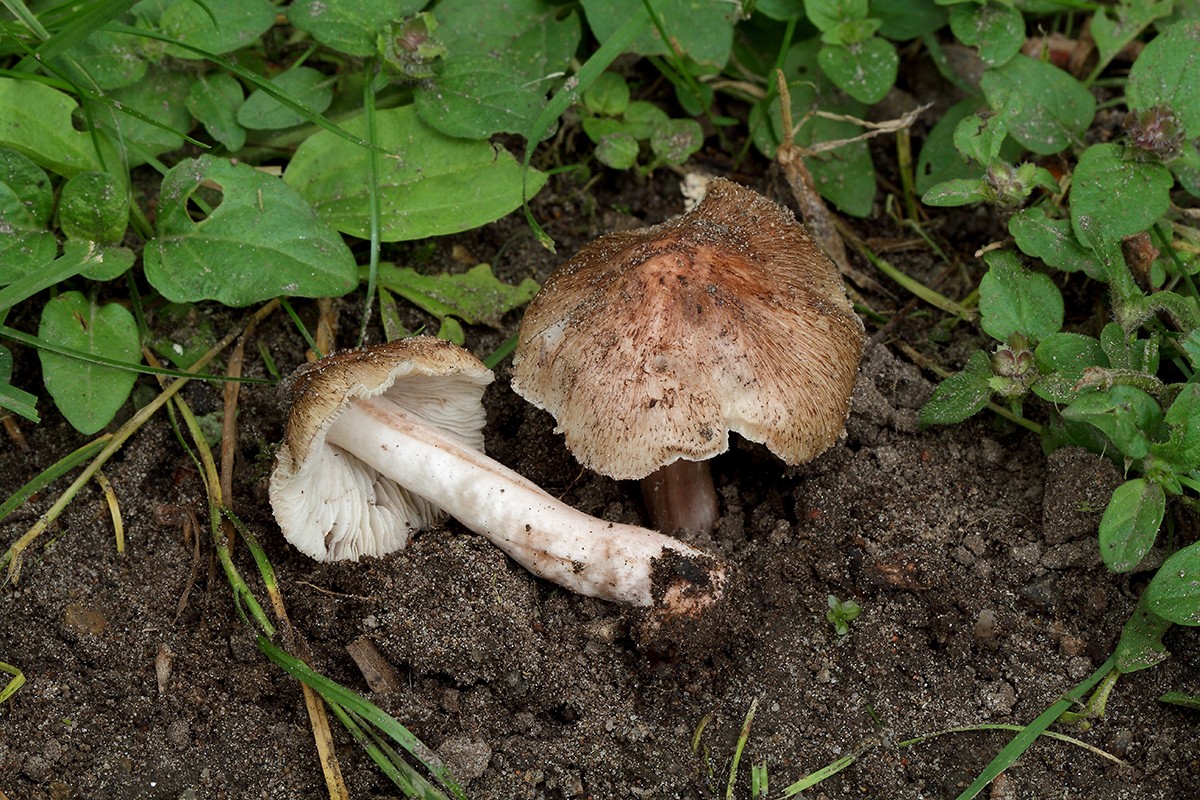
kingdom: Fungi
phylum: Basidiomycota
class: Agaricomycetes
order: Agaricales
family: Inocybaceae
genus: Inosperma
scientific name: Inosperma adaequatum
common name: vinrød trævlhat
